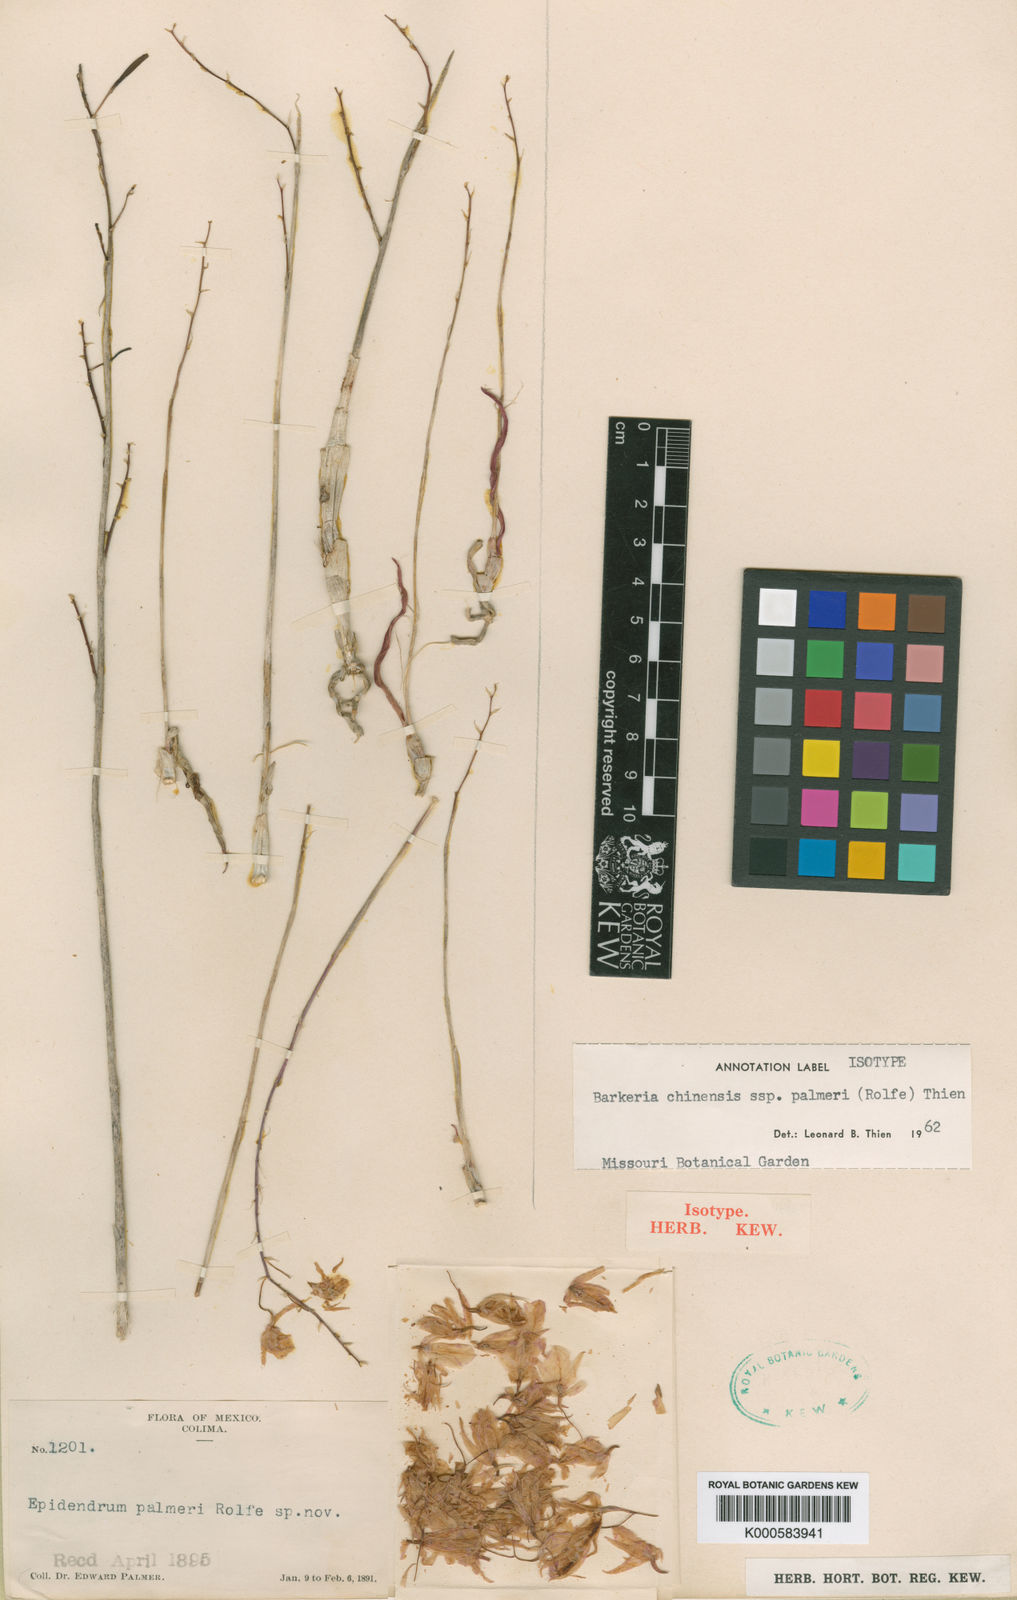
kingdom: Plantae
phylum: Tracheophyta
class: Liliopsida
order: Asparagales
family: Orchidaceae
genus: Barkeria
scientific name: Barkeria palmeri
